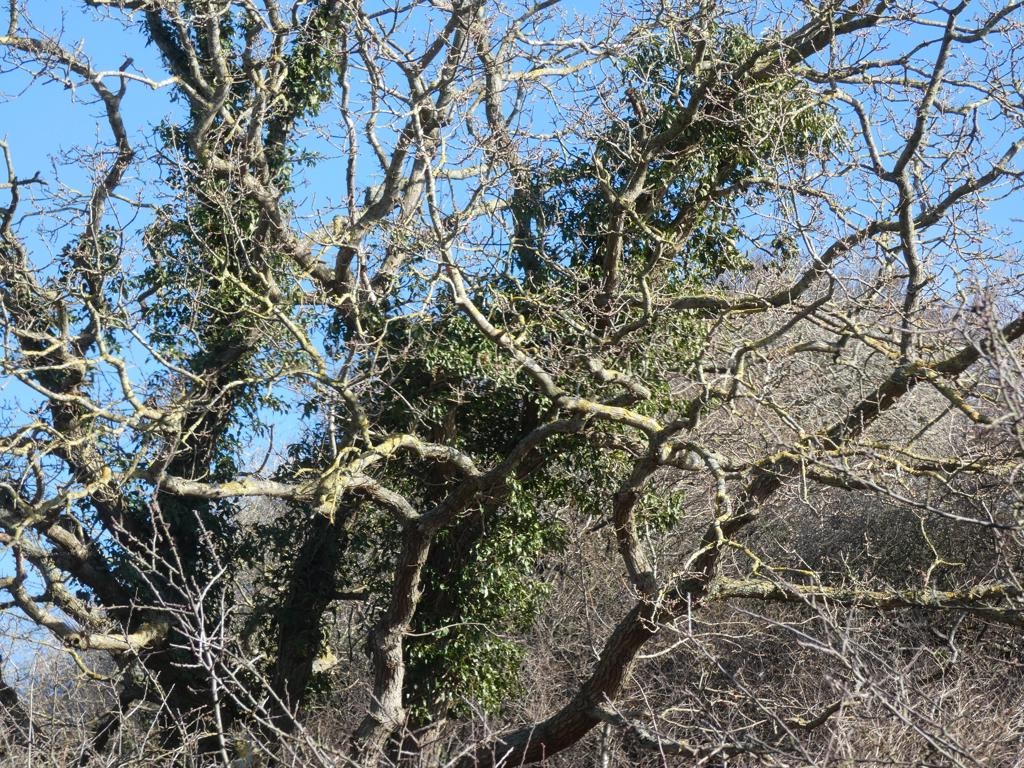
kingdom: Plantae
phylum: Tracheophyta
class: Magnoliopsida
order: Apiales
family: Araliaceae
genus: Hedera
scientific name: Hedera helix
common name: Vedbend
